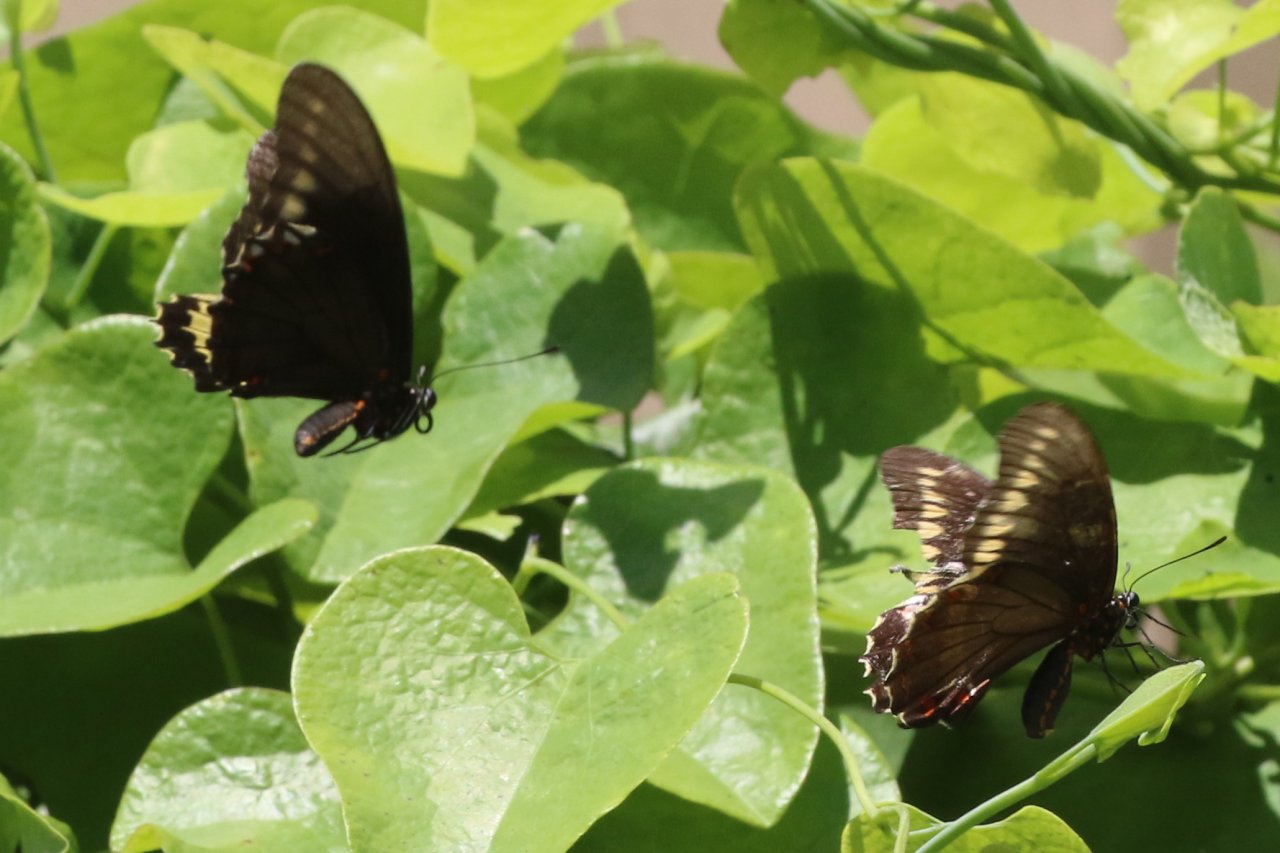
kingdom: Animalia
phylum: Arthropoda
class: Insecta
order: Lepidoptera
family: Papilionidae
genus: Battus
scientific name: Battus polydamas
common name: Polydamas Swallowtail
